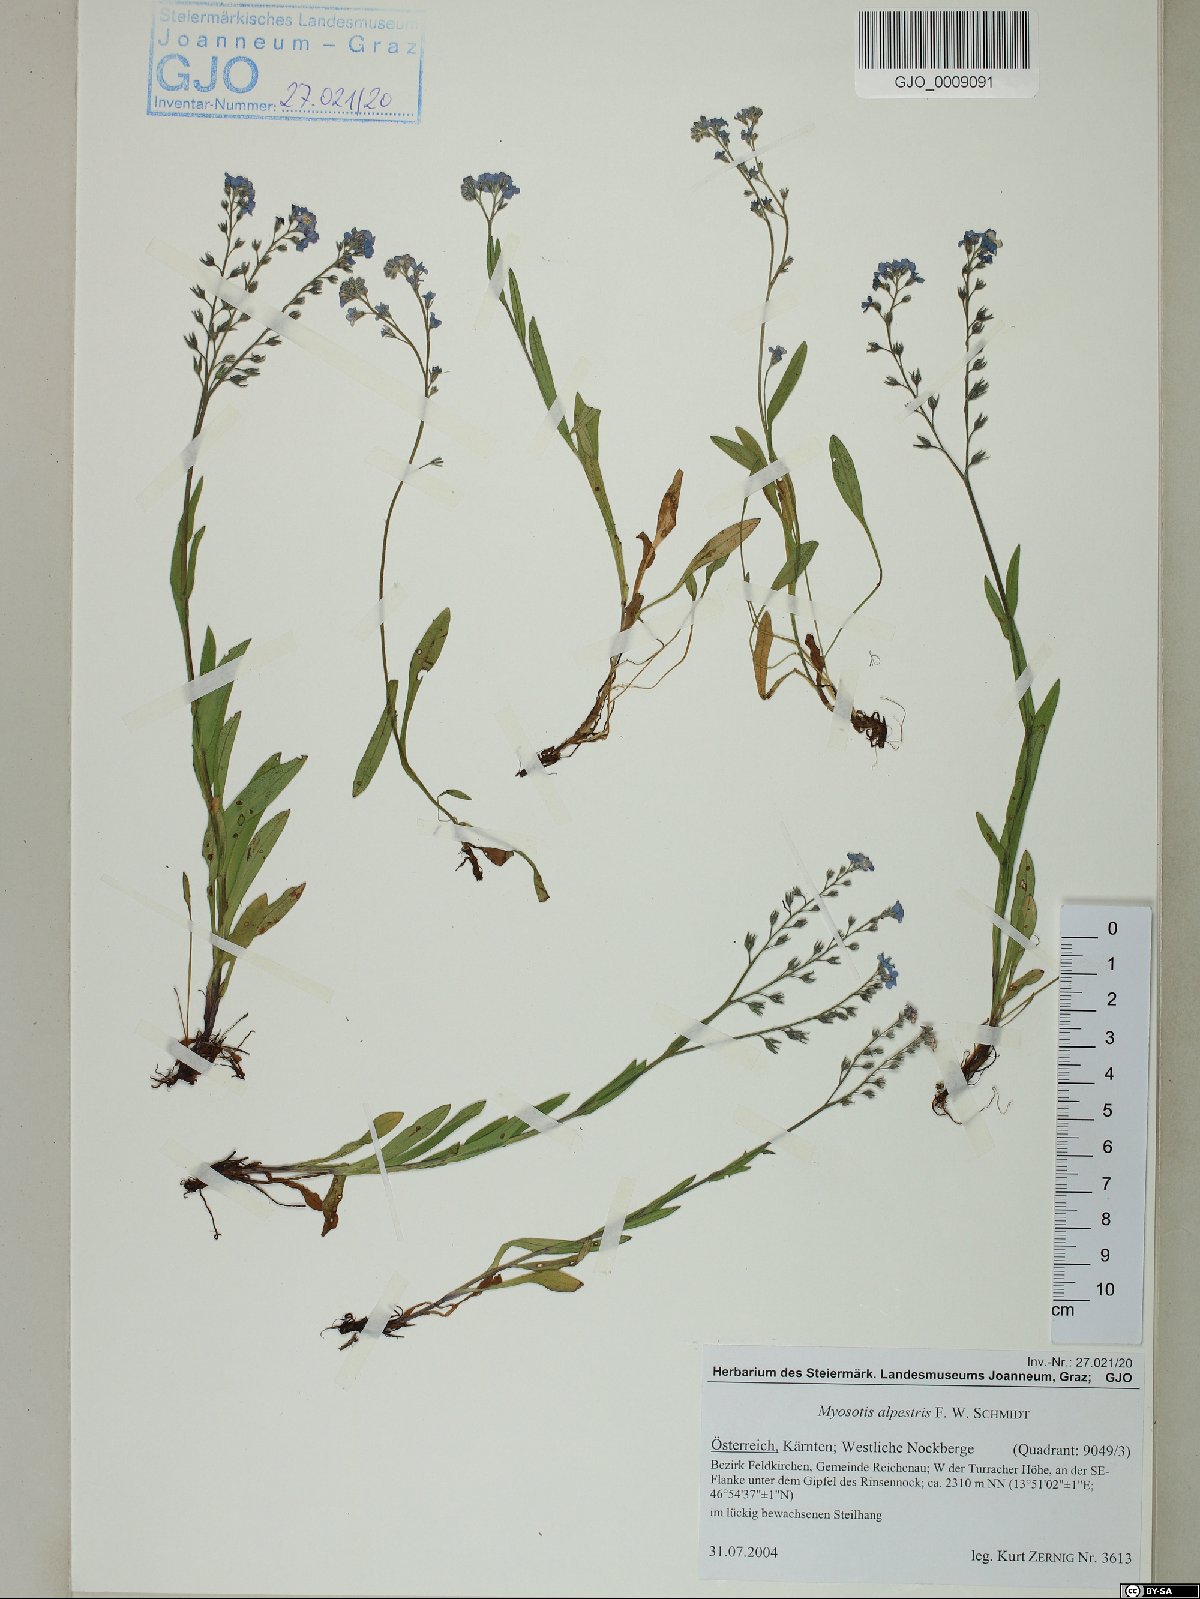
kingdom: Plantae
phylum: Tracheophyta
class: Magnoliopsida
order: Boraginales
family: Boraginaceae
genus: Myosotis
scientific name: Myosotis alpestris
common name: Alpine forget-me-not
